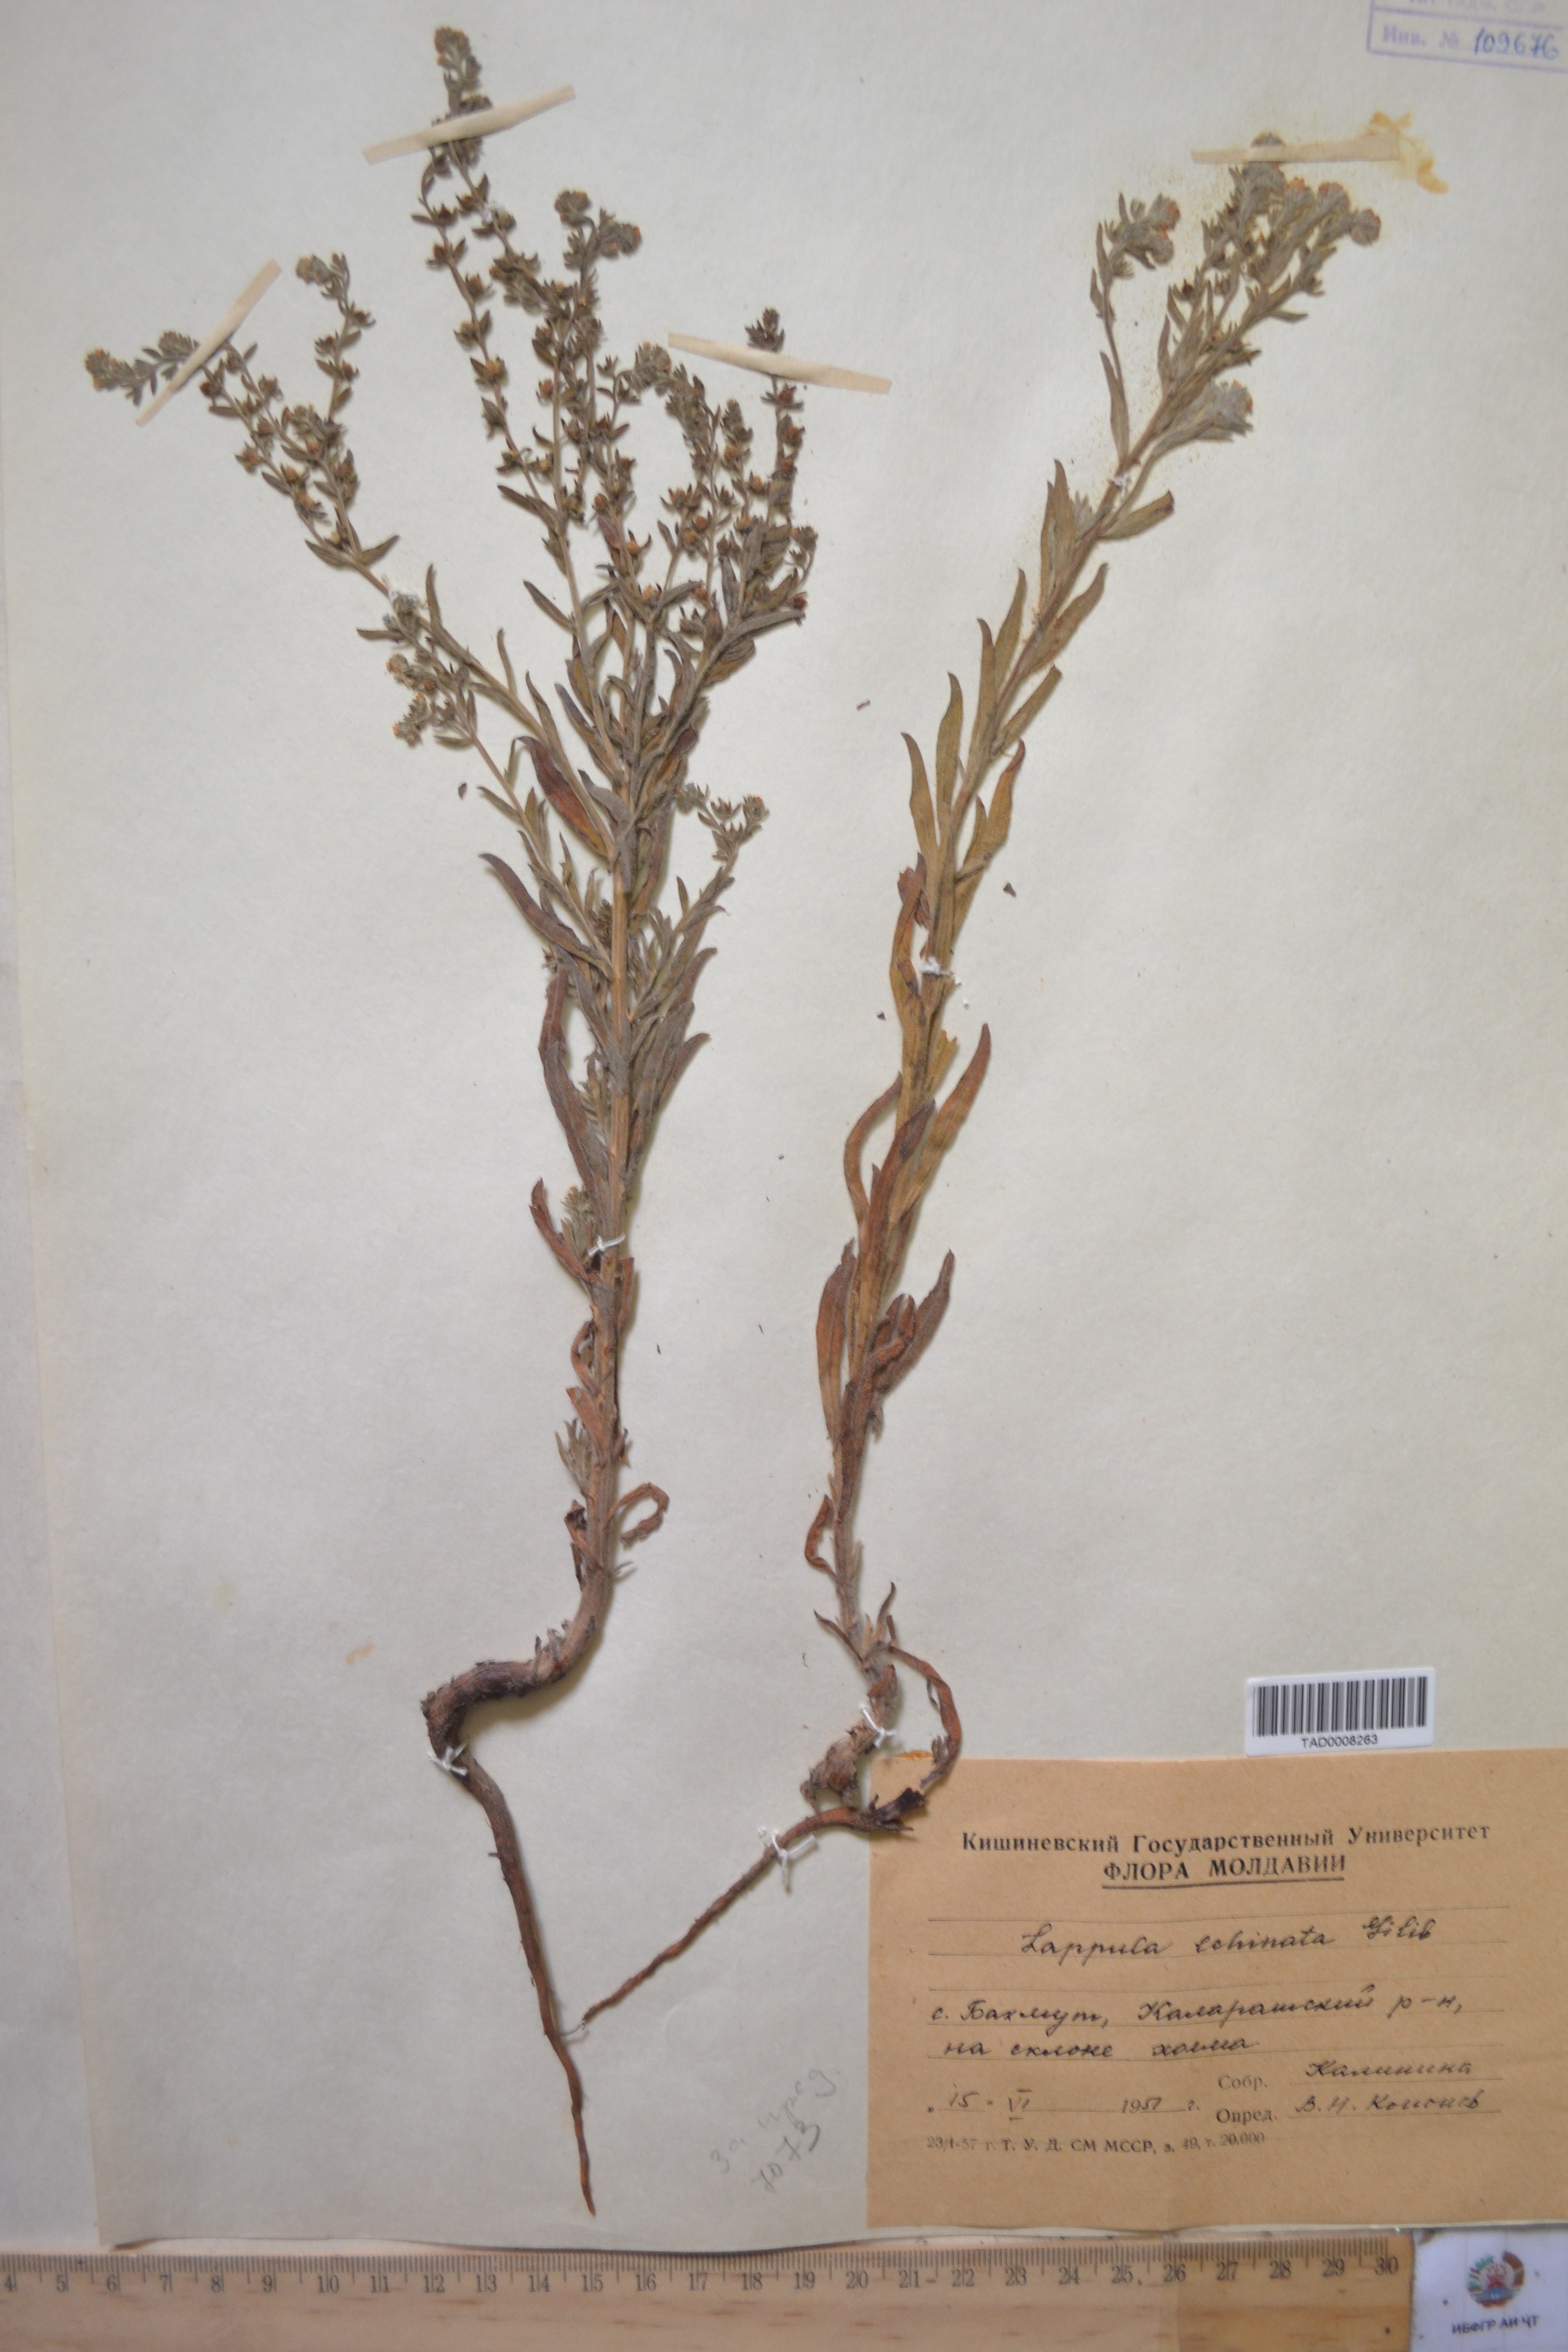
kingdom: Plantae
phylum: Tracheophyta
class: Magnoliopsida
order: Boraginales
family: Boraginaceae
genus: Lappula
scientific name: Lappula squarrosa
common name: European stickseed
